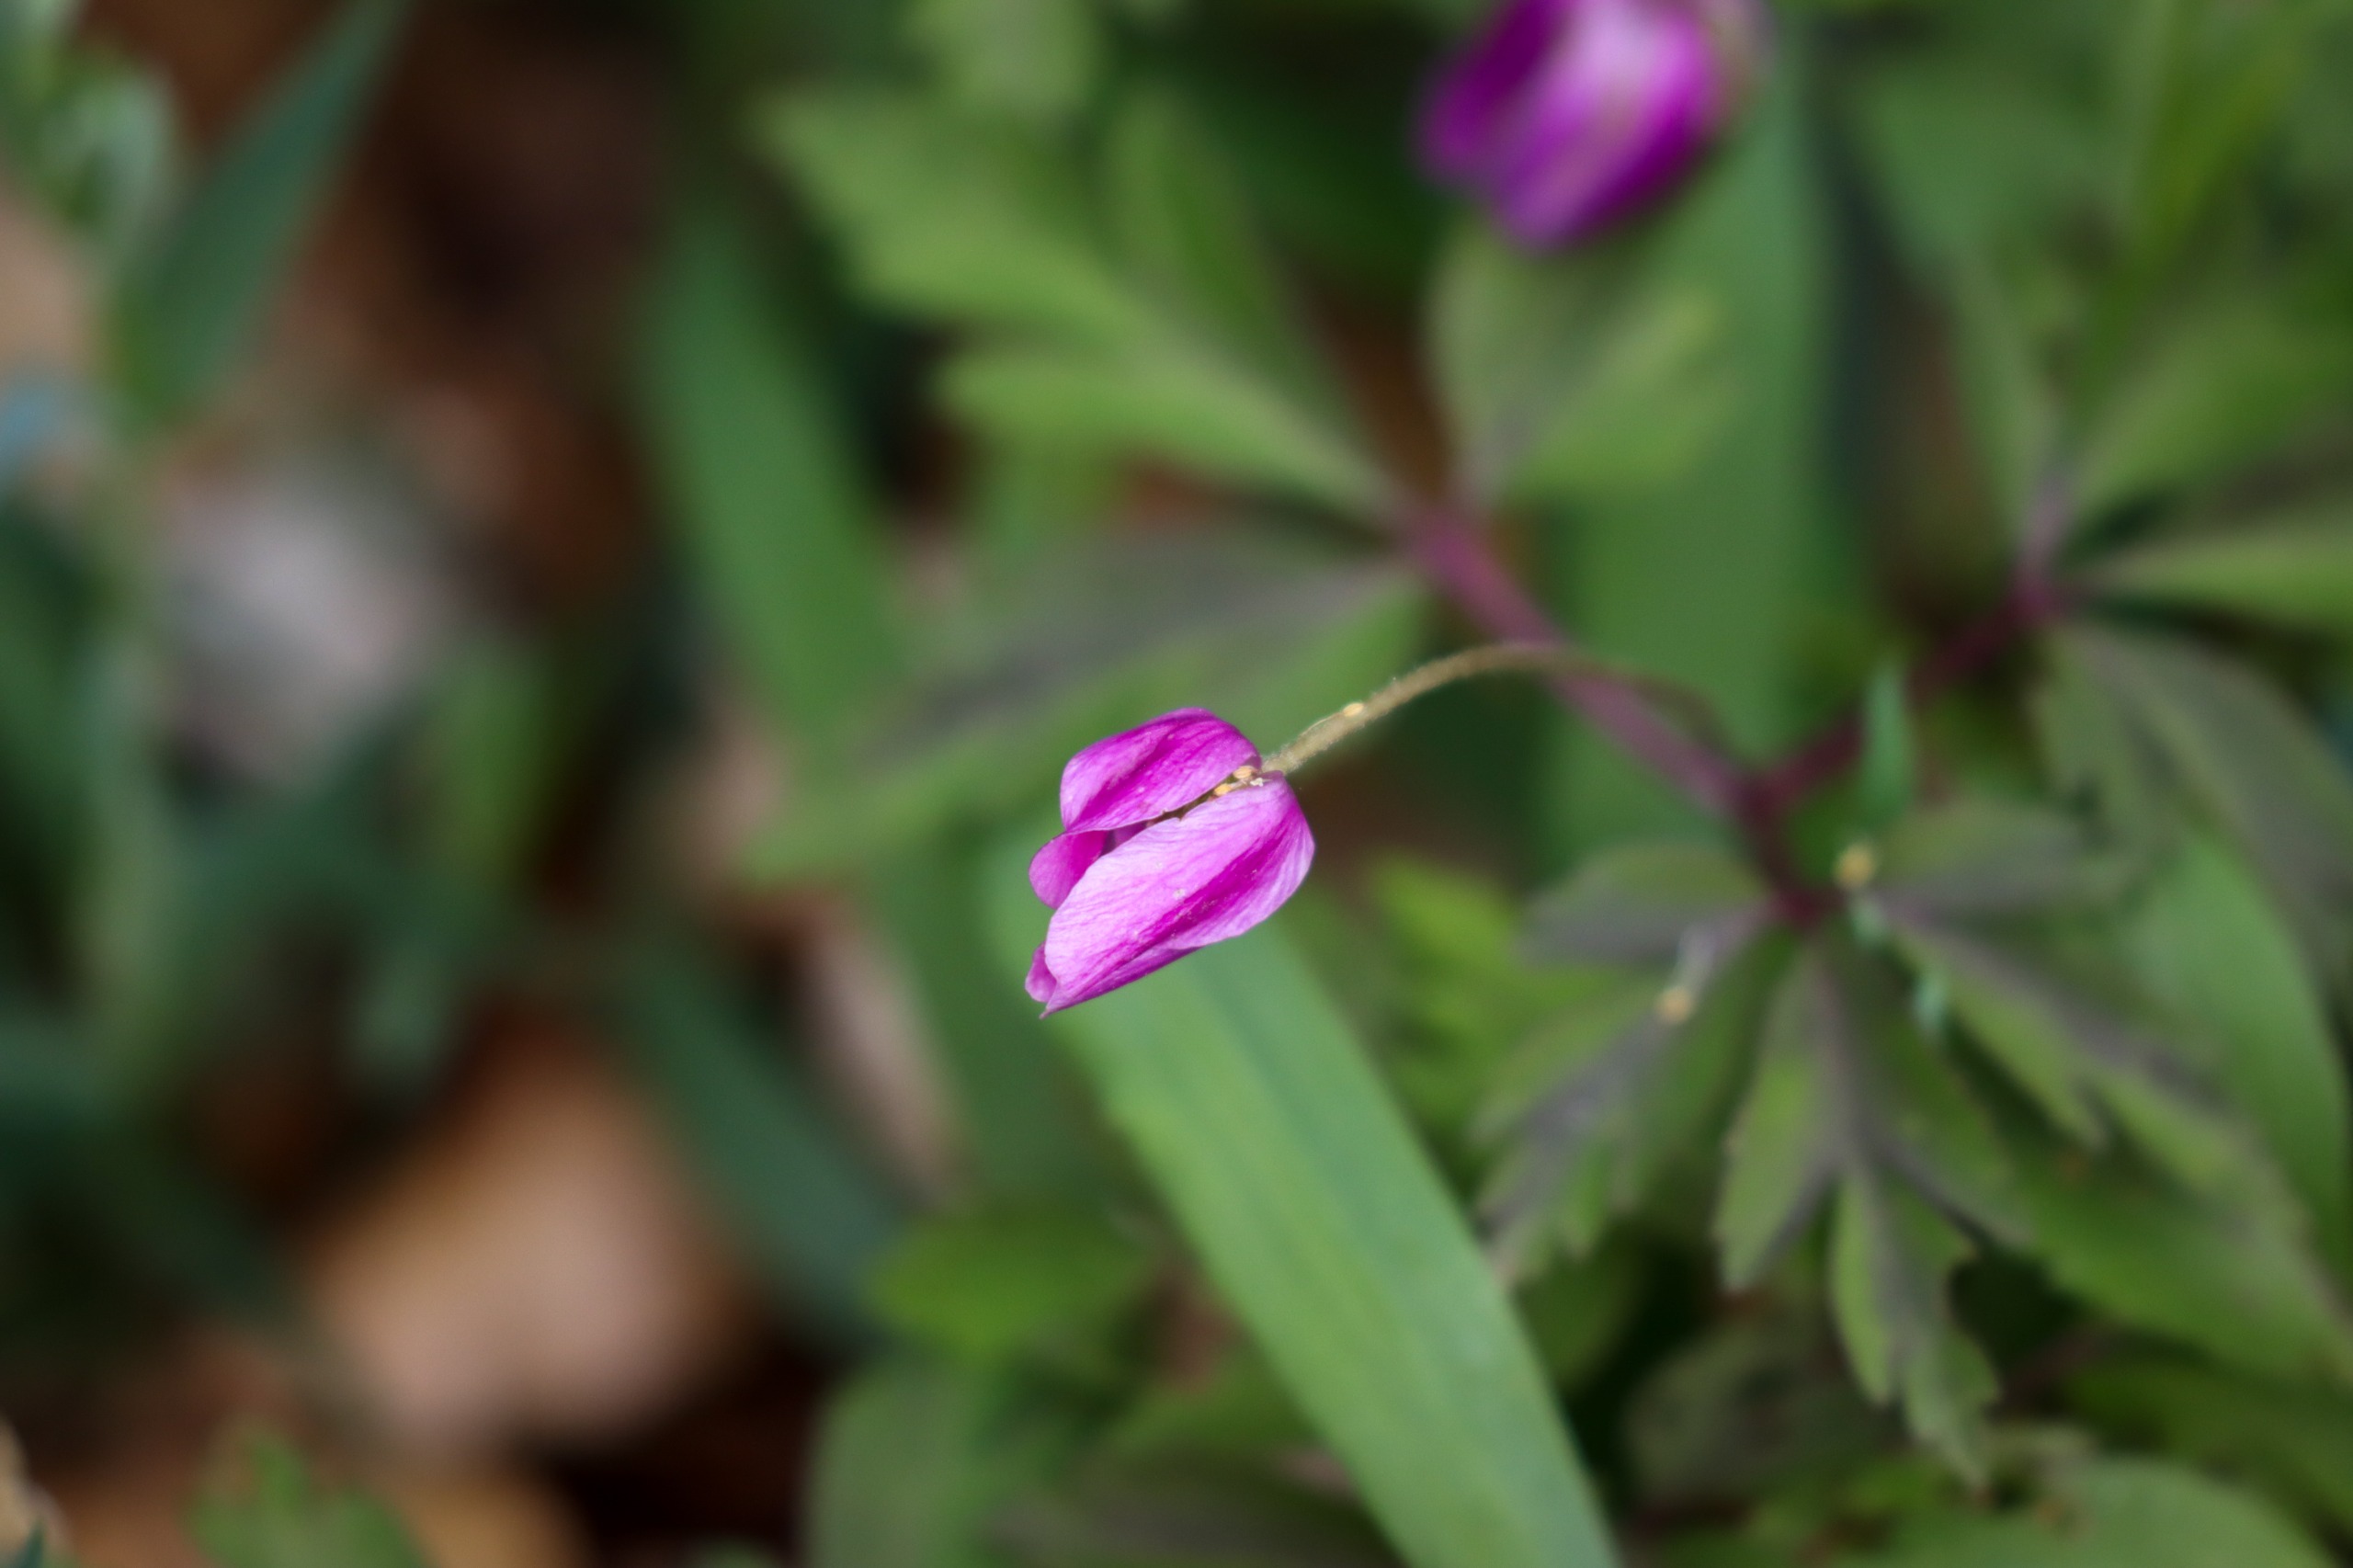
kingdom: Plantae
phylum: Tracheophyta
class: Magnoliopsida
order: Ranunculales
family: Ranunculaceae
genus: Anemone
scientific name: Anemone nemorosa
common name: Hvid anemone
